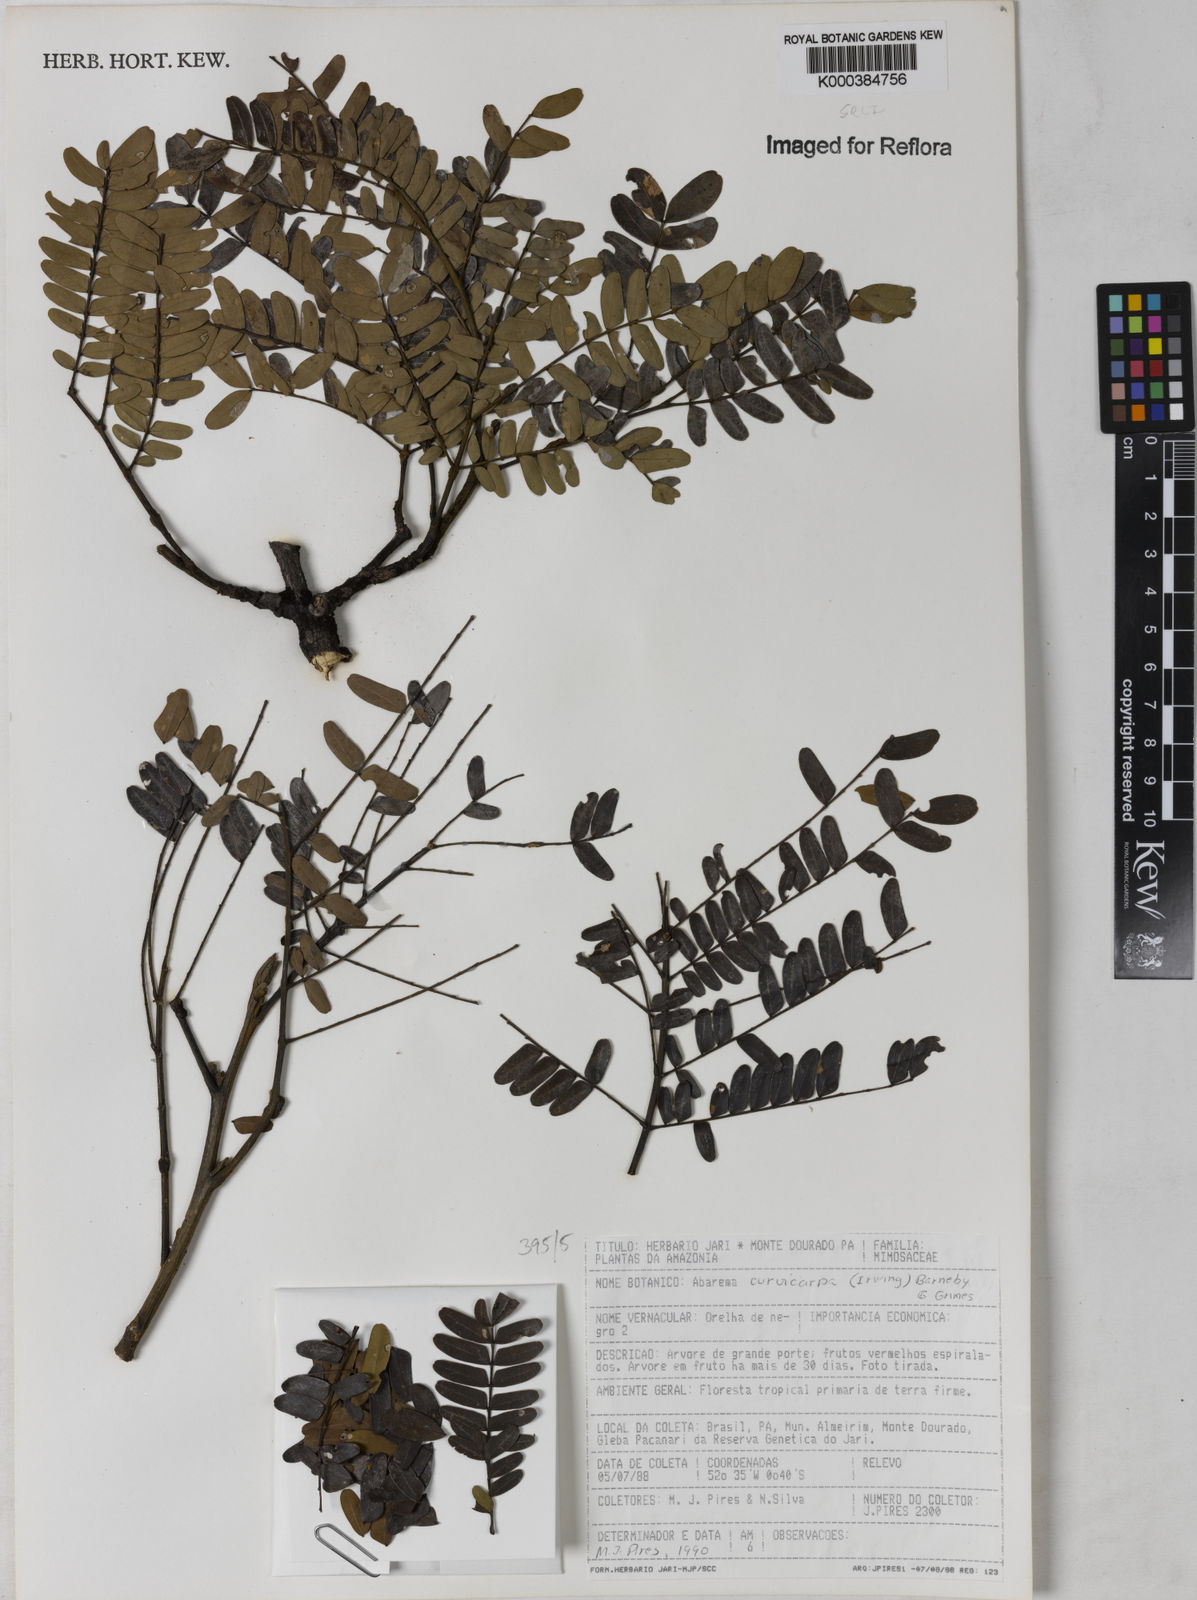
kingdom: Plantae
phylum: Tracheophyta
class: Magnoliopsida
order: Fabales
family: Fabaceae
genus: Jupunba
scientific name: Jupunba curvicarpa
